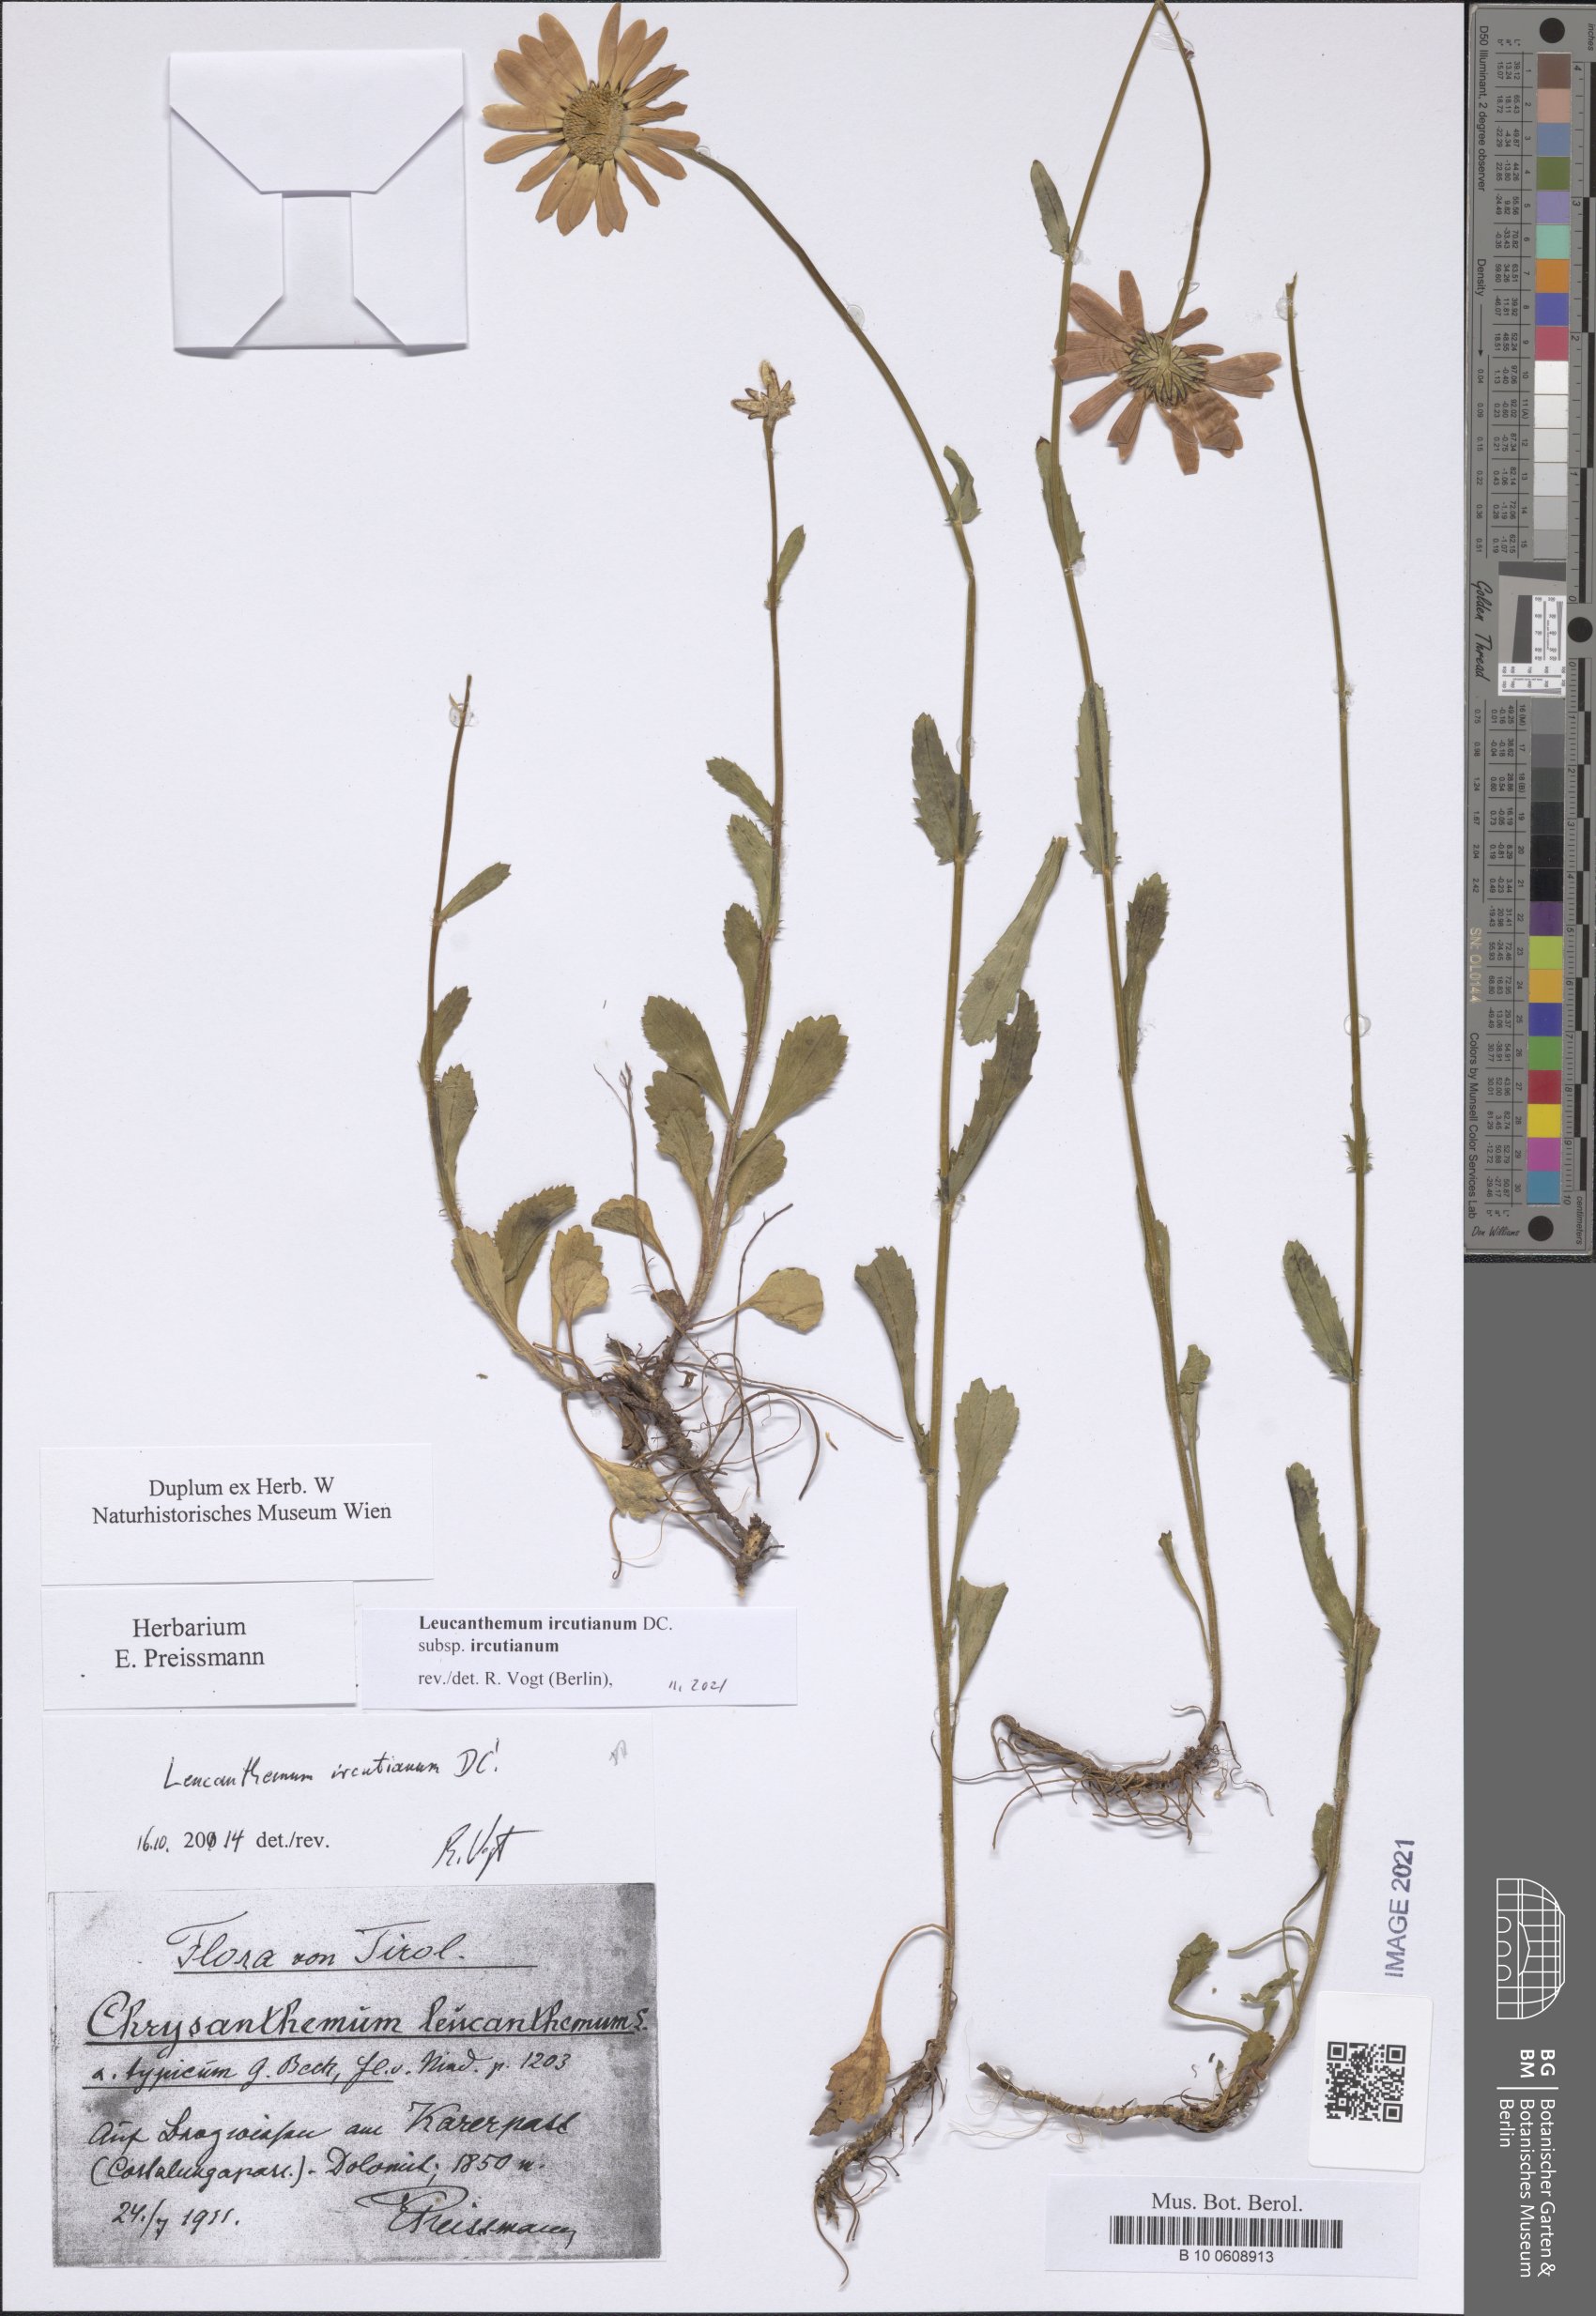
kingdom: Plantae
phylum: Tracheophyta
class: Magnoliopsida
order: Asterales
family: Asteraceae
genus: Leucanthemum
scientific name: Leucanthemum ircutianum
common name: Daisy
